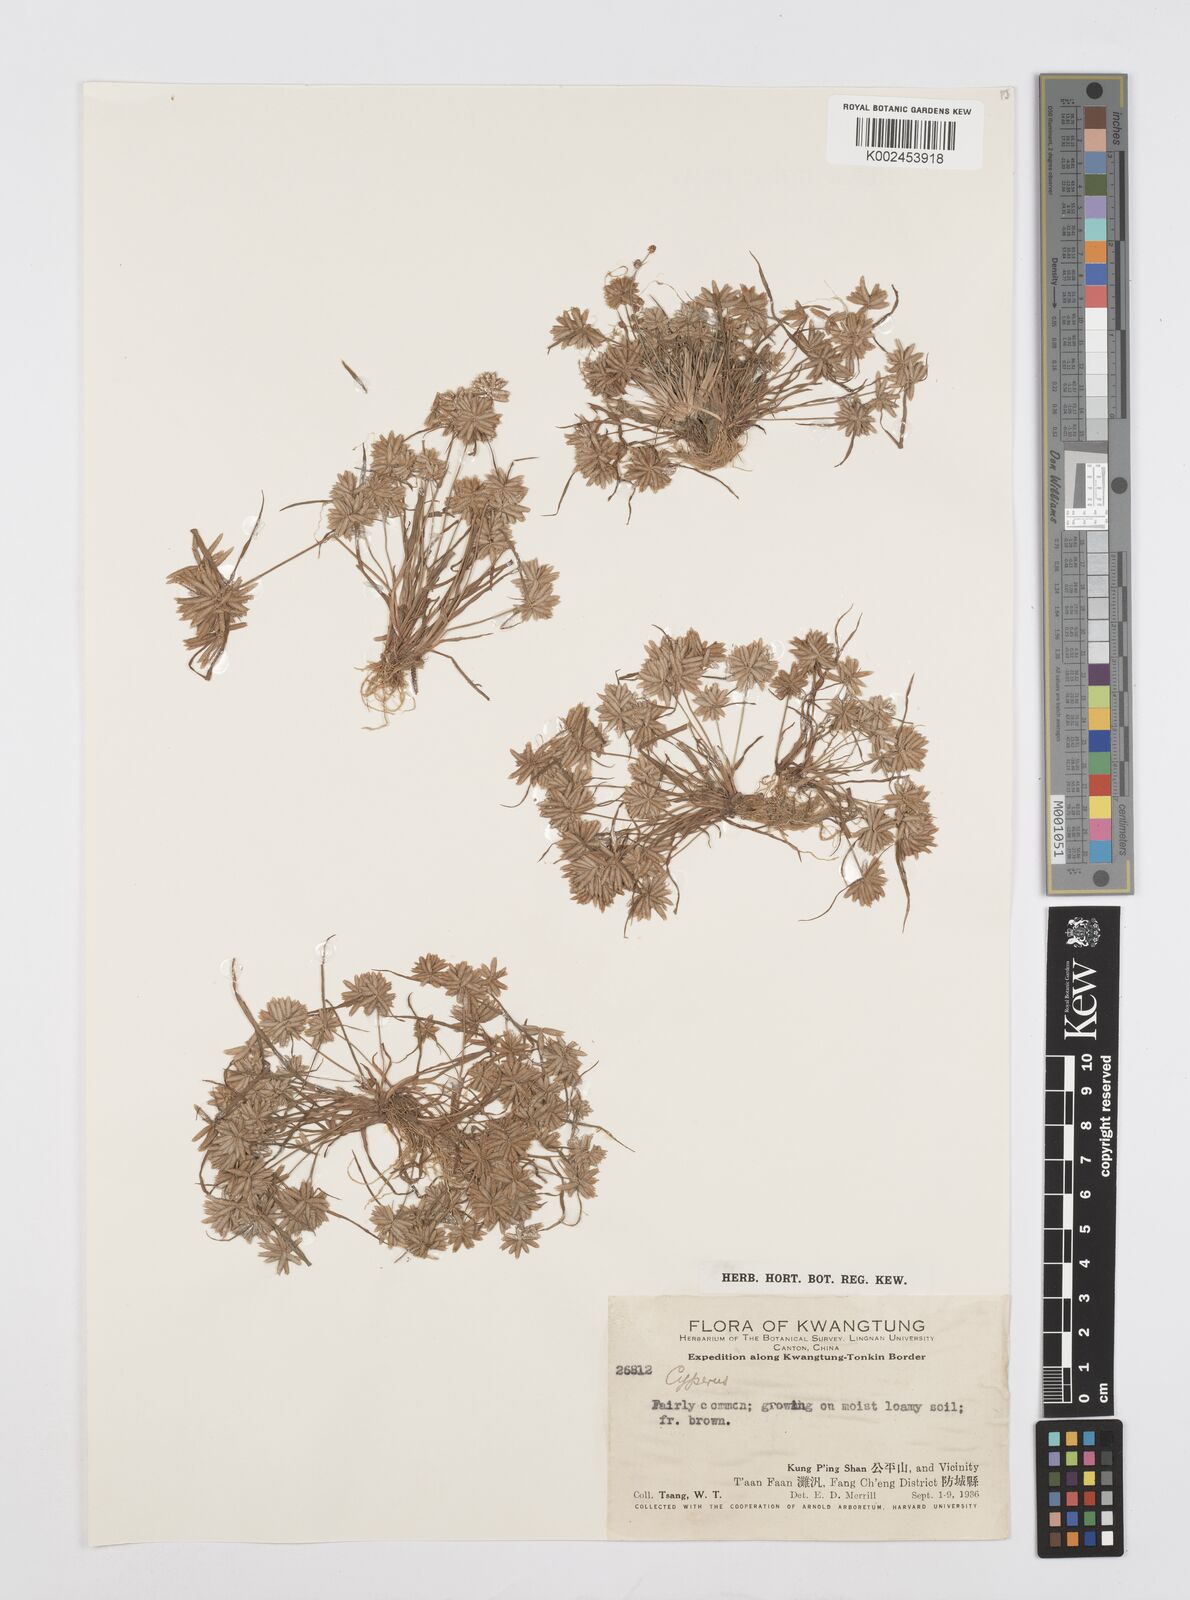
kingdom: Plantae
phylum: Tracheophyta
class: Liliopsida
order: Poales
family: Cyperaceae
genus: Cyperus
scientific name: Cyperus pumilus
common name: Low flatsedge
